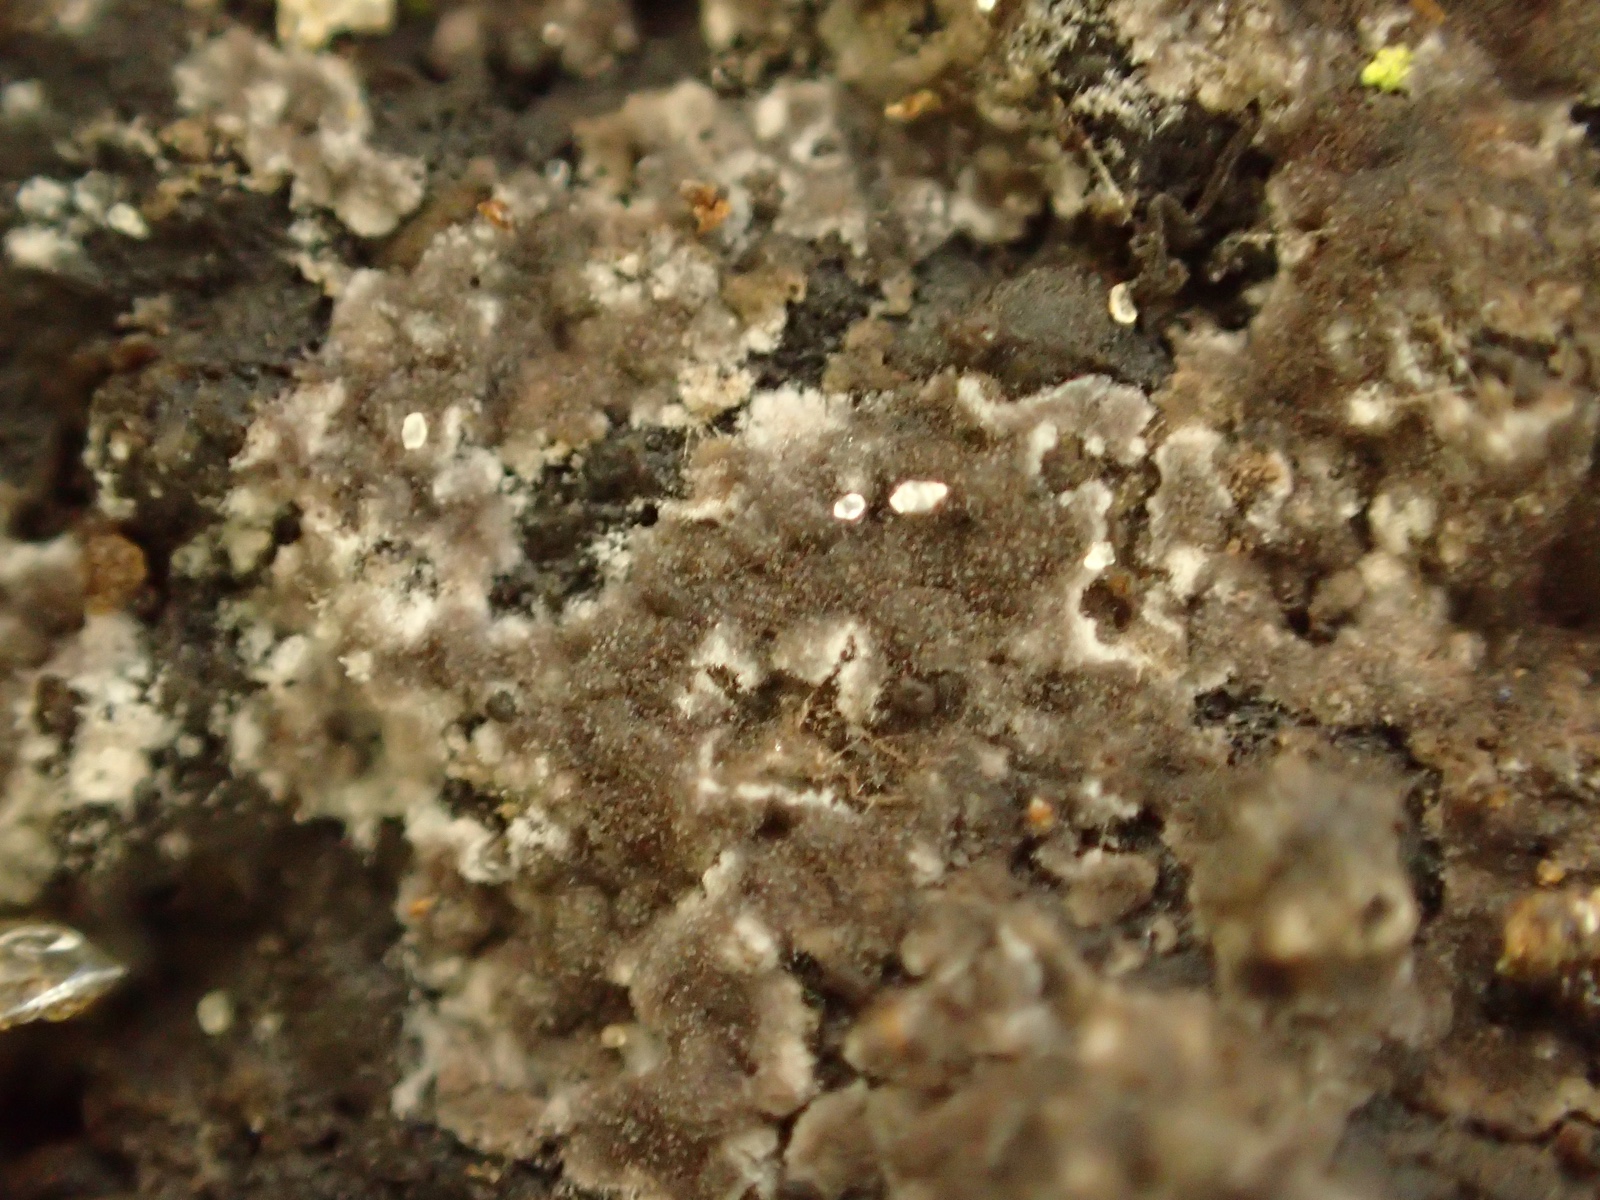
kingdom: Fungi
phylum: Basidiomycota
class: Agaricomycetes
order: Thelephorales
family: Thelephoraceae
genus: Thelephora
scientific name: Thelephora wakefieldiae
